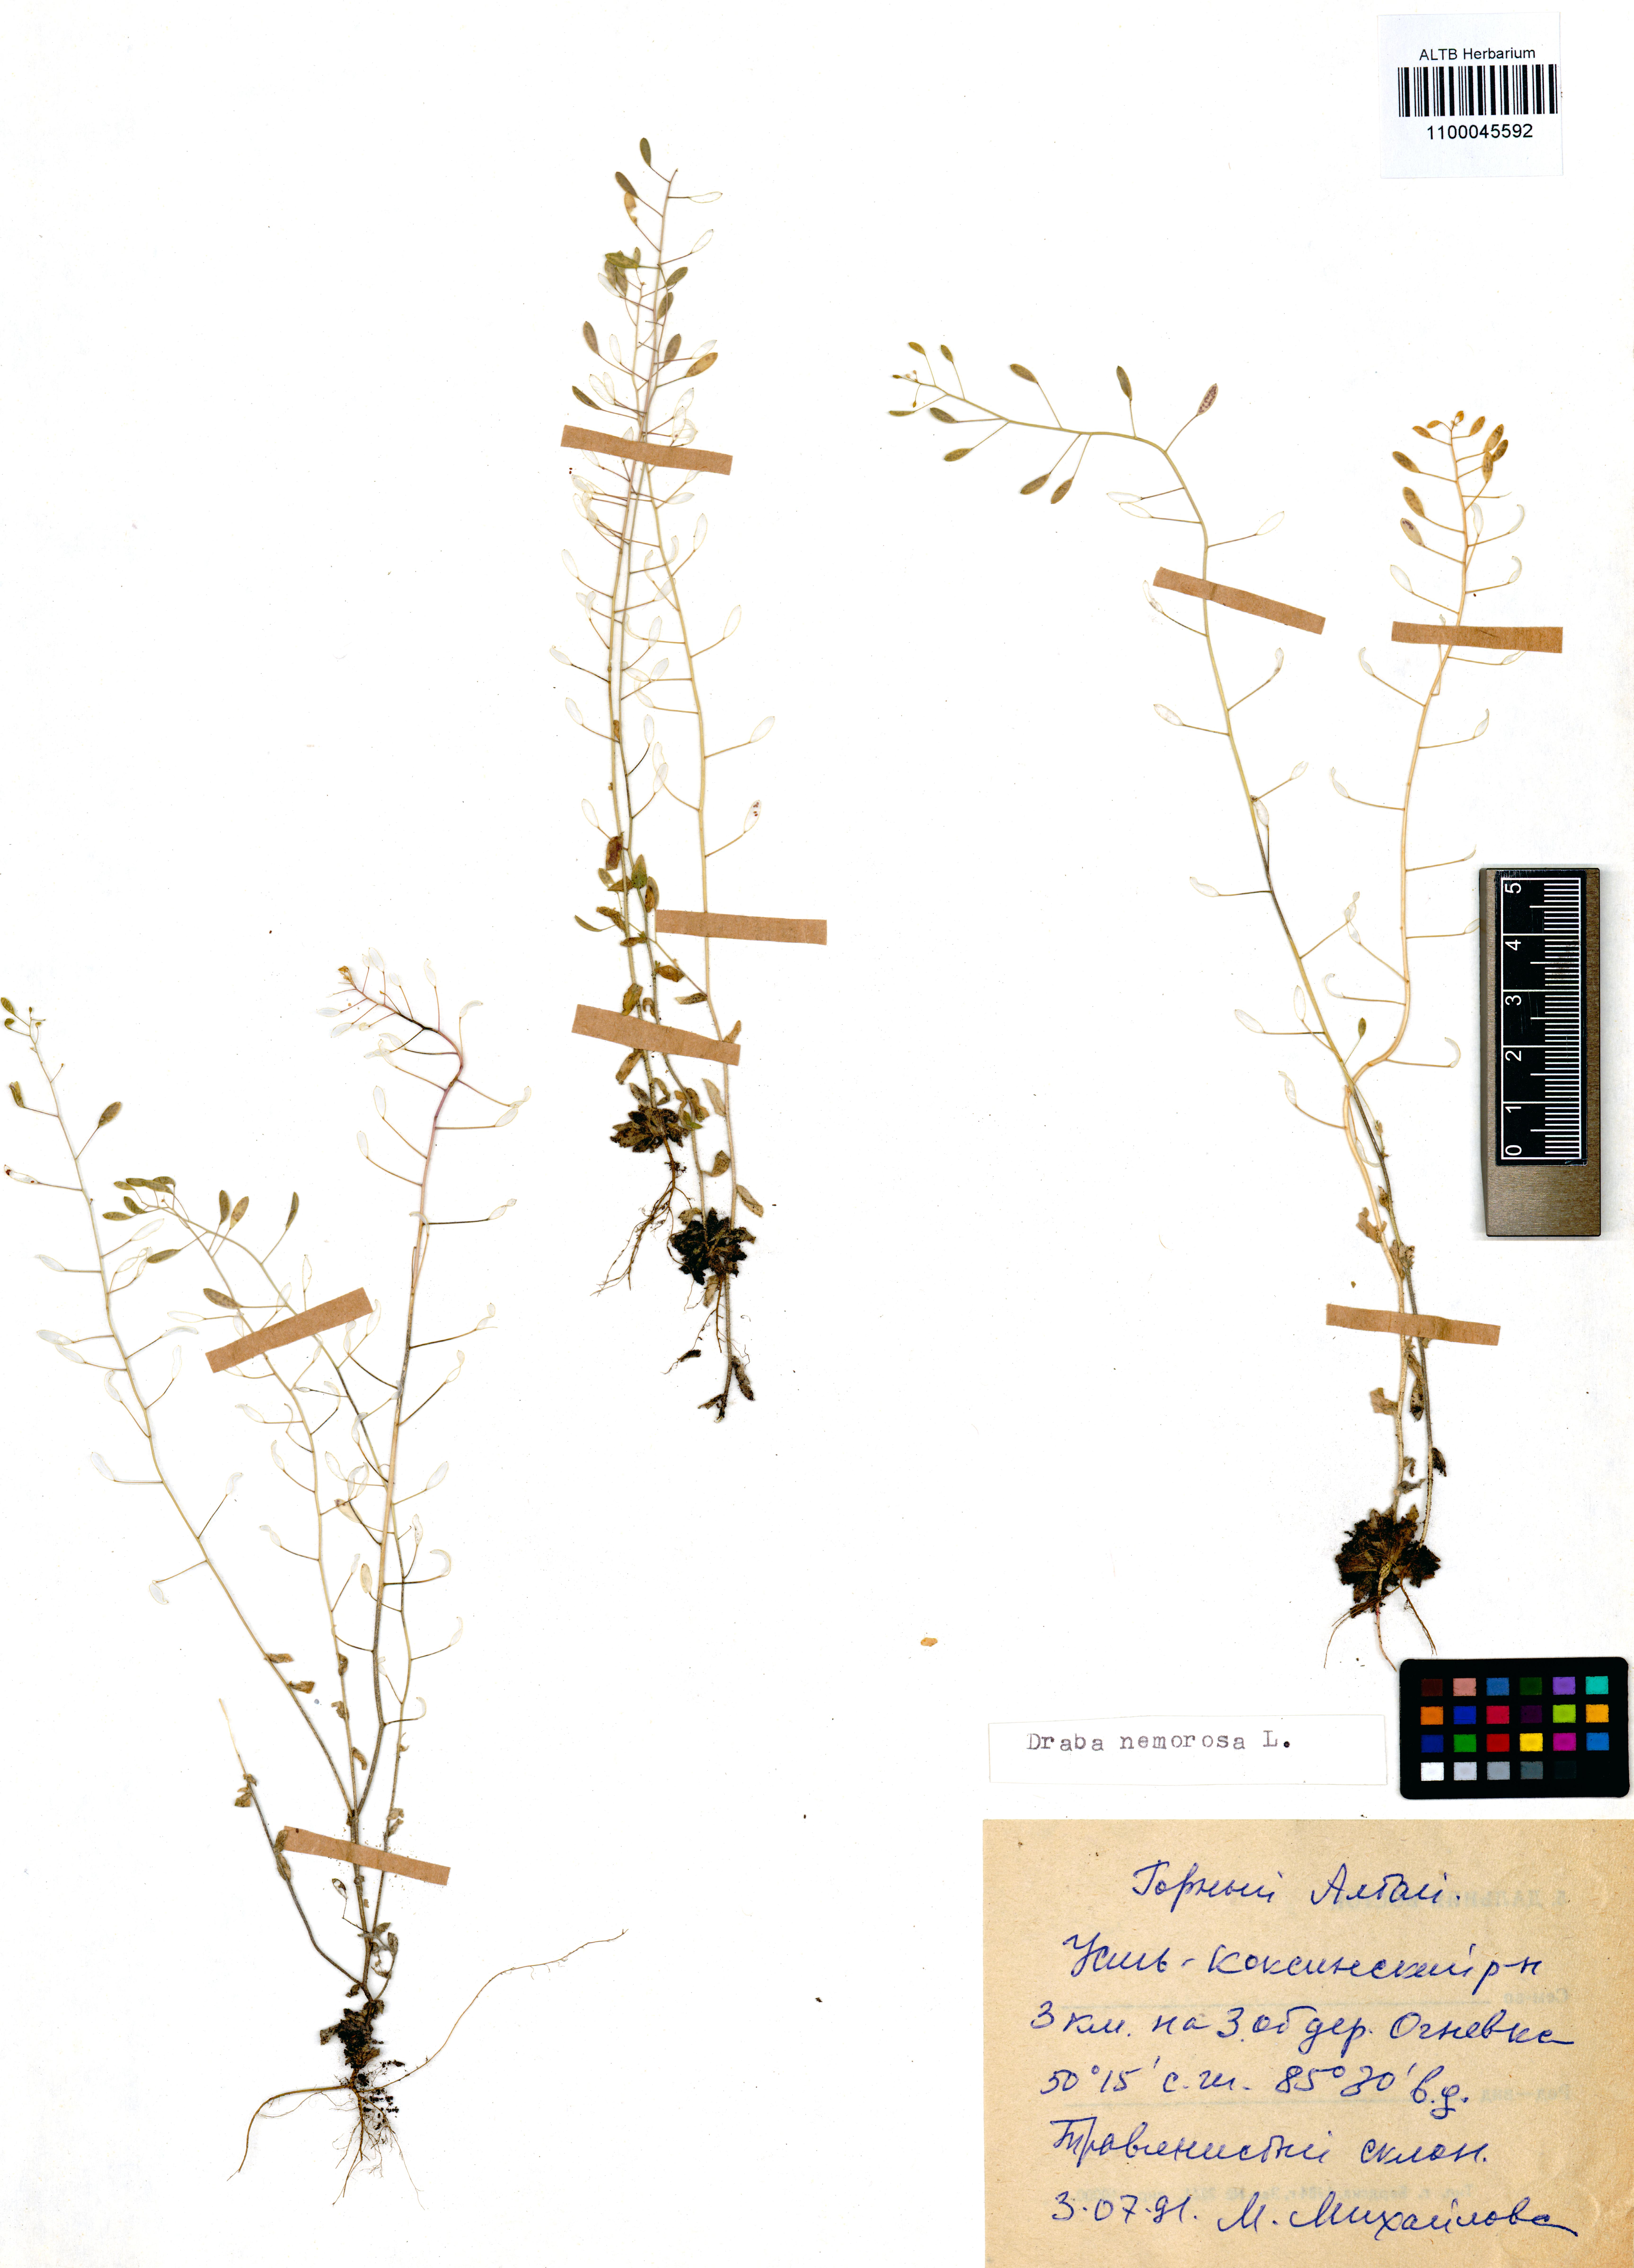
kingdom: Plantae
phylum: Tracheophyta
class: Magnoliopsida
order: Brassicales
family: Brassicaceae
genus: Draba
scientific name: Draba nemorosa
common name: Wood whitlow-grass
